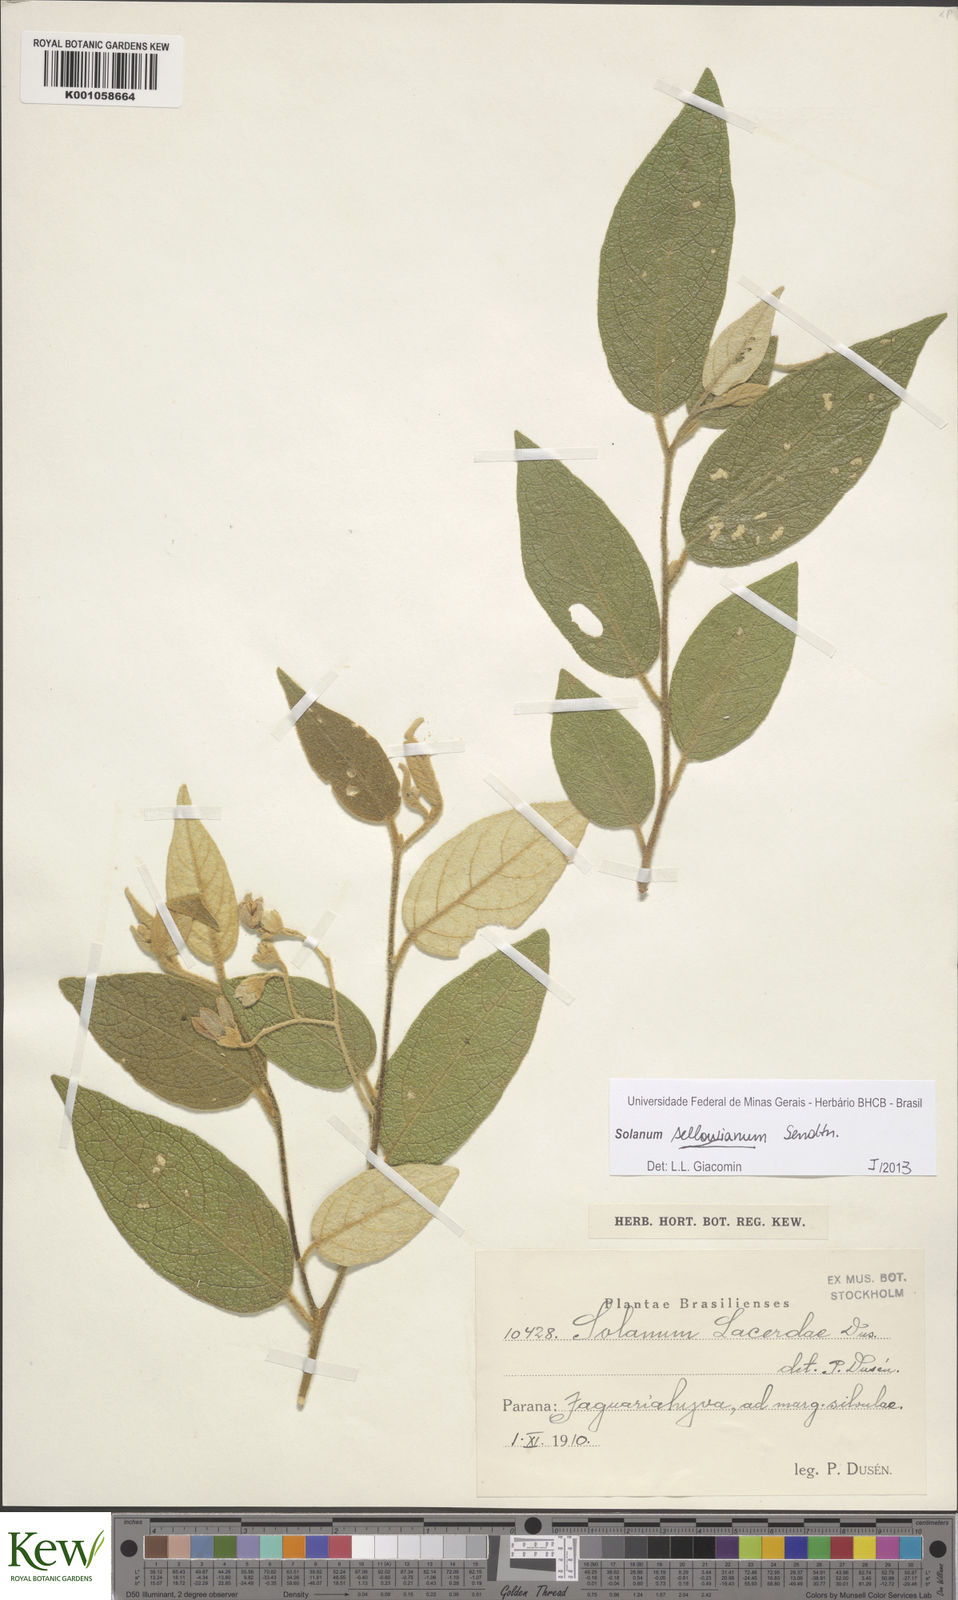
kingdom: Plantae
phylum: Tracheophyta
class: Magnoliopsida
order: Solanales
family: Solanaceae
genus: Solanum
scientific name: Solanum sellowianum
